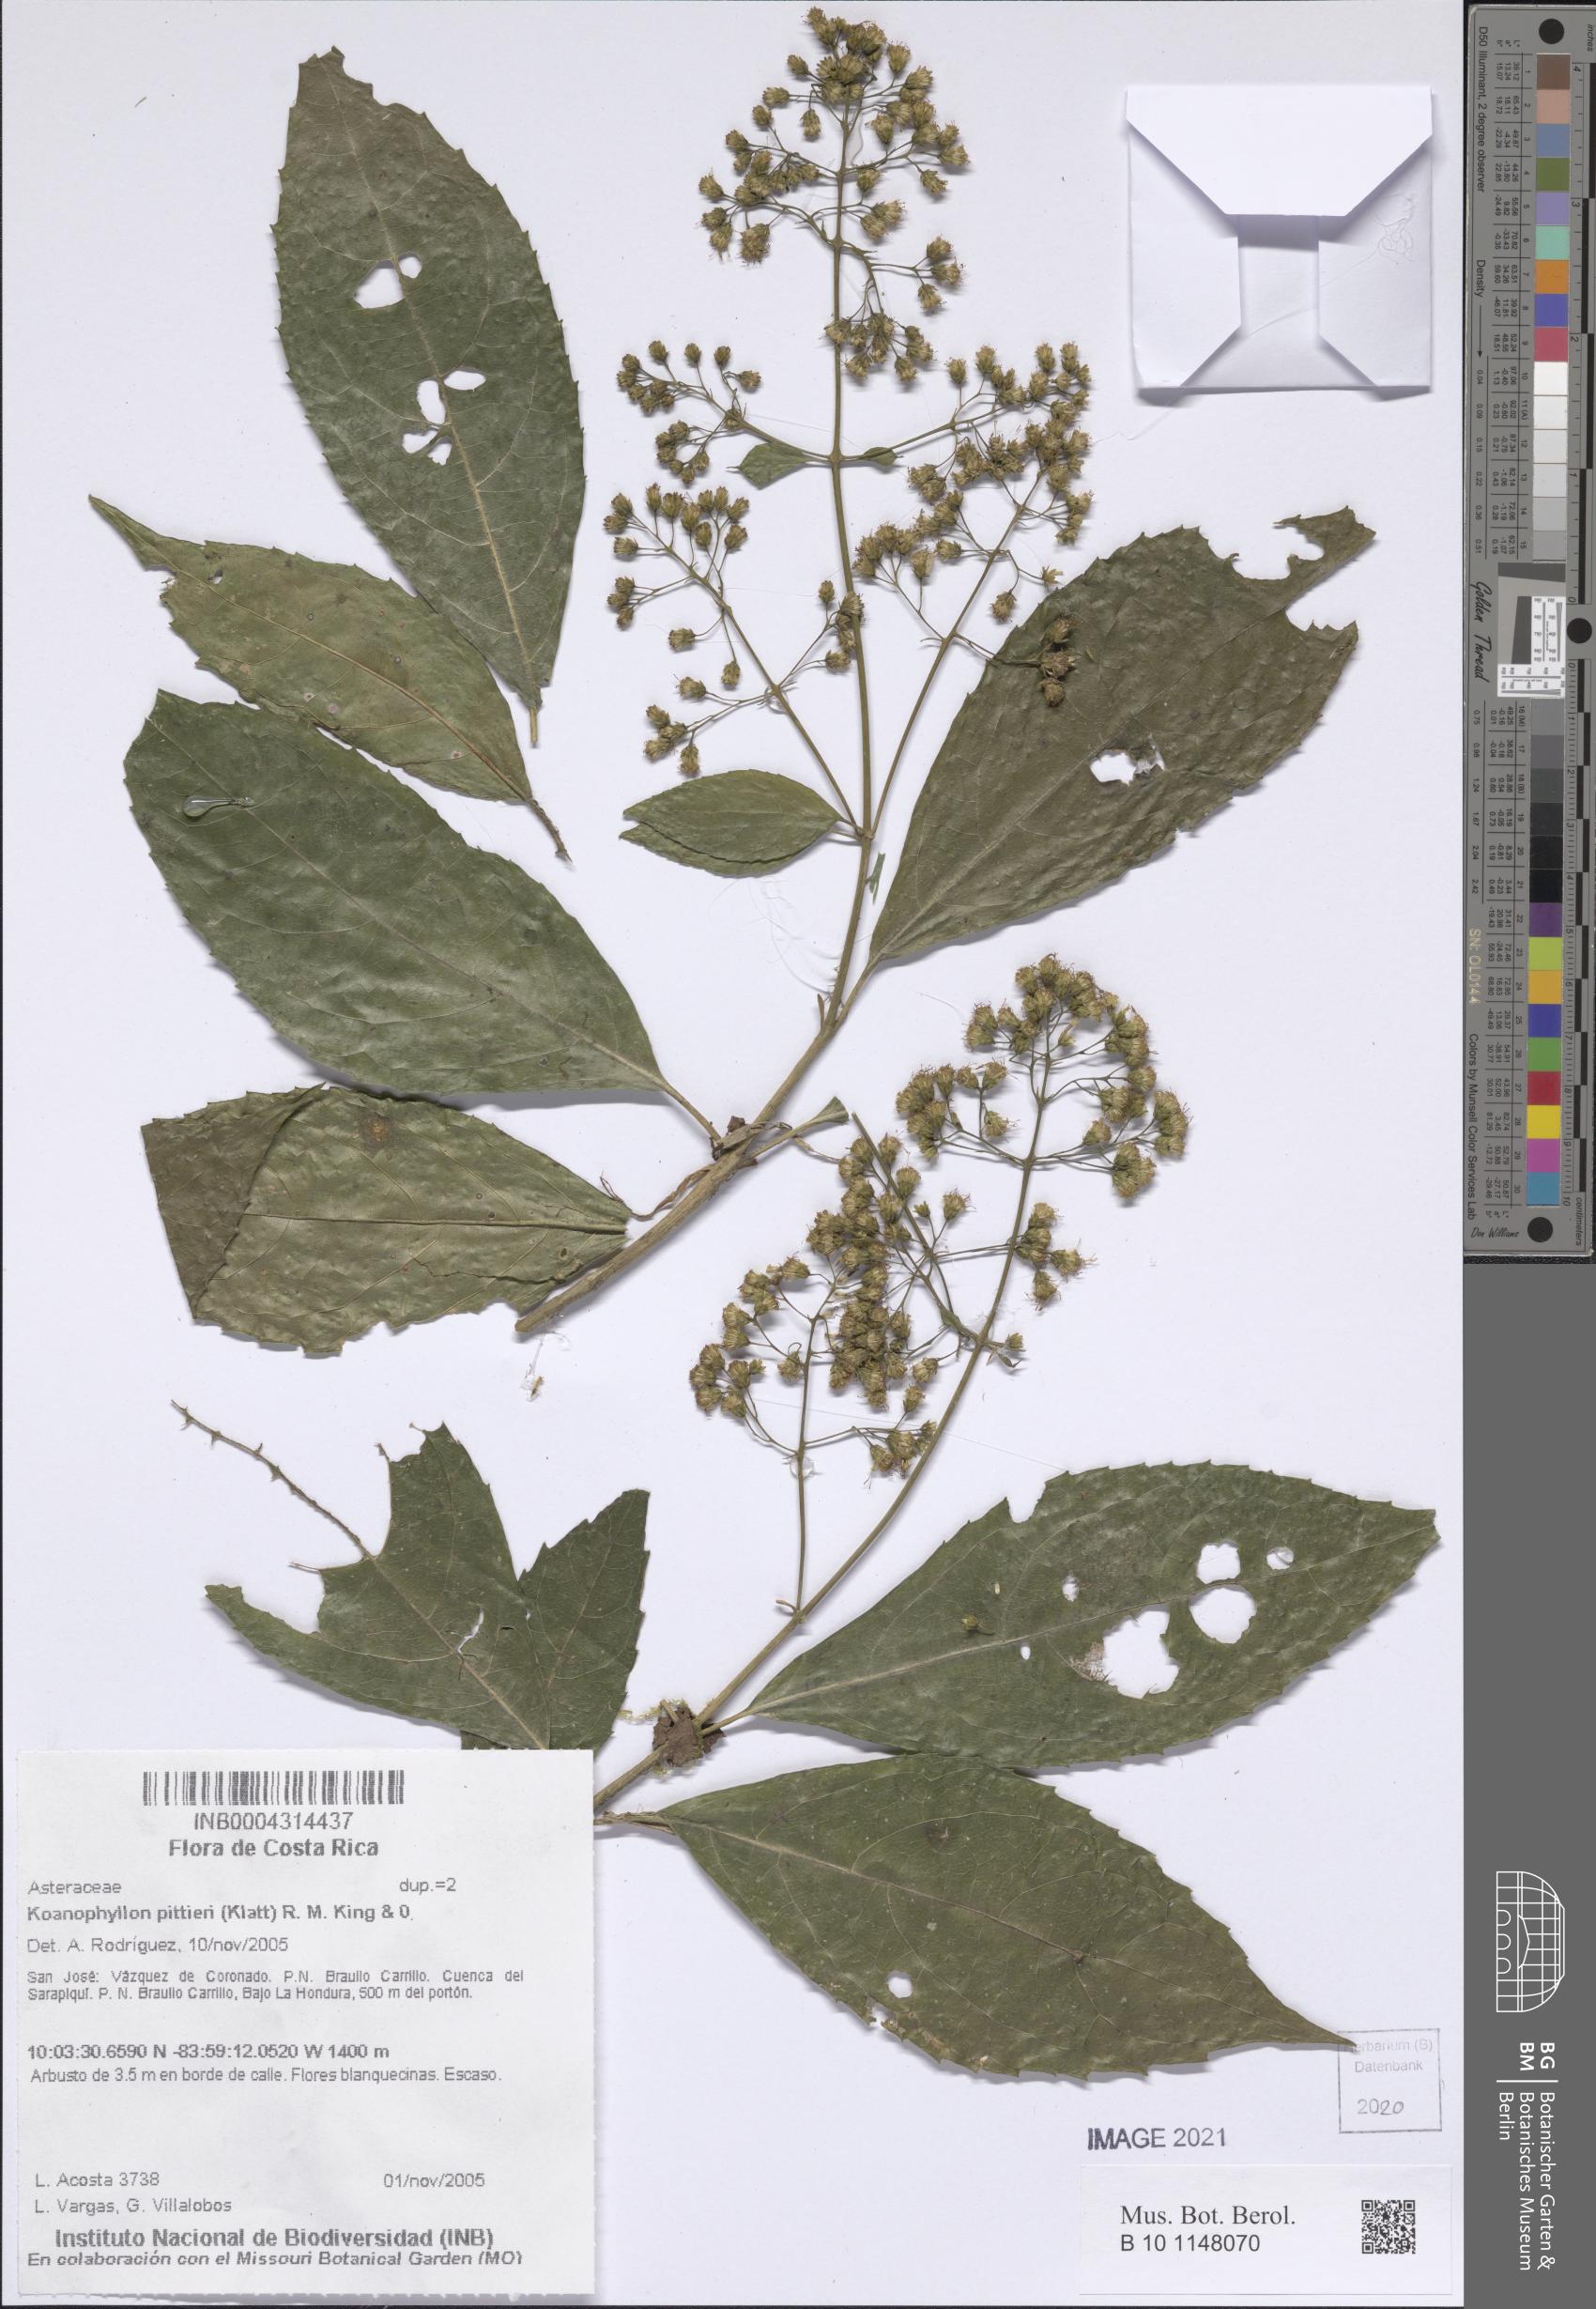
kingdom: Plantae
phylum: Tracheophyta
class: Magnoliopsida
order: Asterales
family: Asteraceae
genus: Koanophyllon
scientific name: Koanophyllon pittieri
